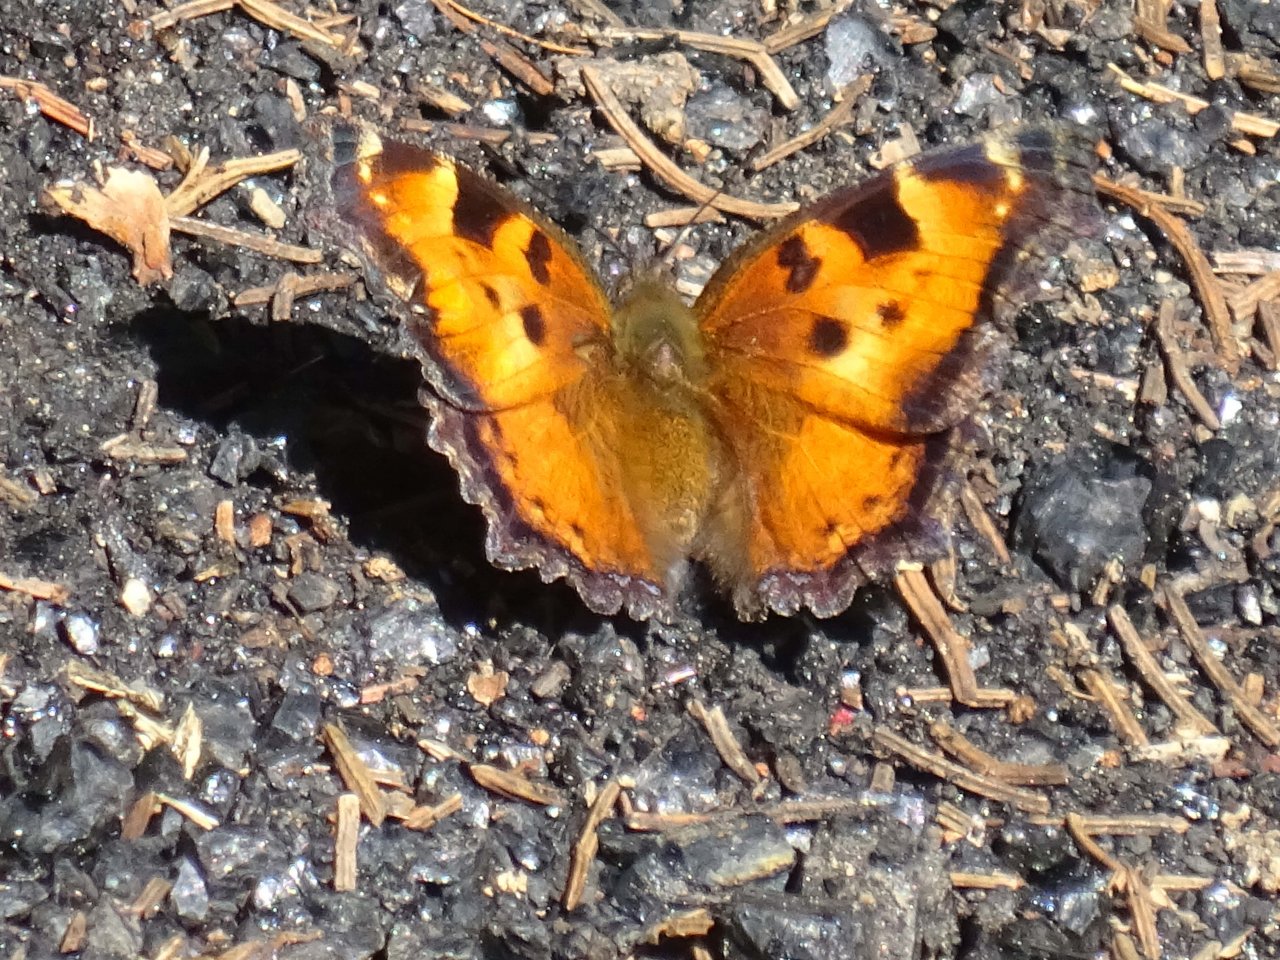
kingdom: Animalia
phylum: Arthropoda
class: Insecta
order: Lepidoptera
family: Nymphalidae
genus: Nymphalis
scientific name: Nymphalis californica
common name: California Tortoiseshell
